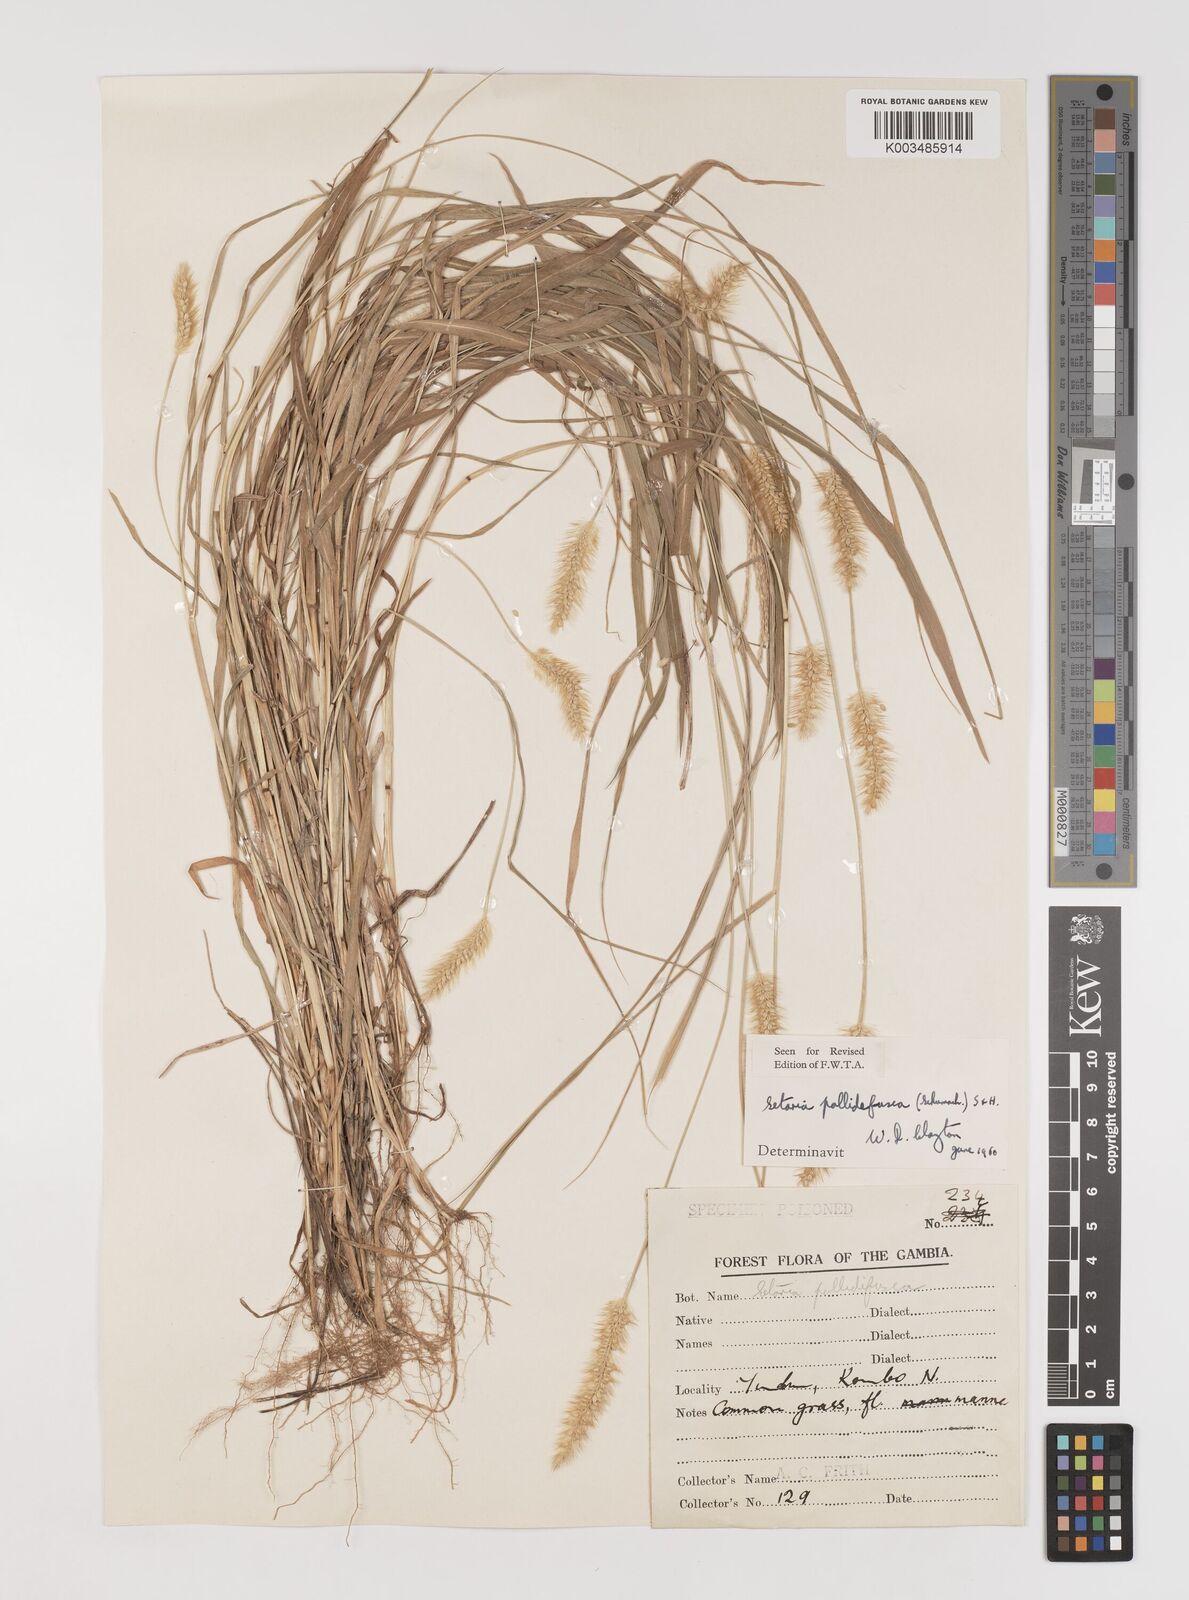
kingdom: Plantae
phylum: Tracheophyta
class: Liliopsida
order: Poales
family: Poaceae
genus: Setaria
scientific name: Setaria pumila
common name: Yellow bristle-grass
